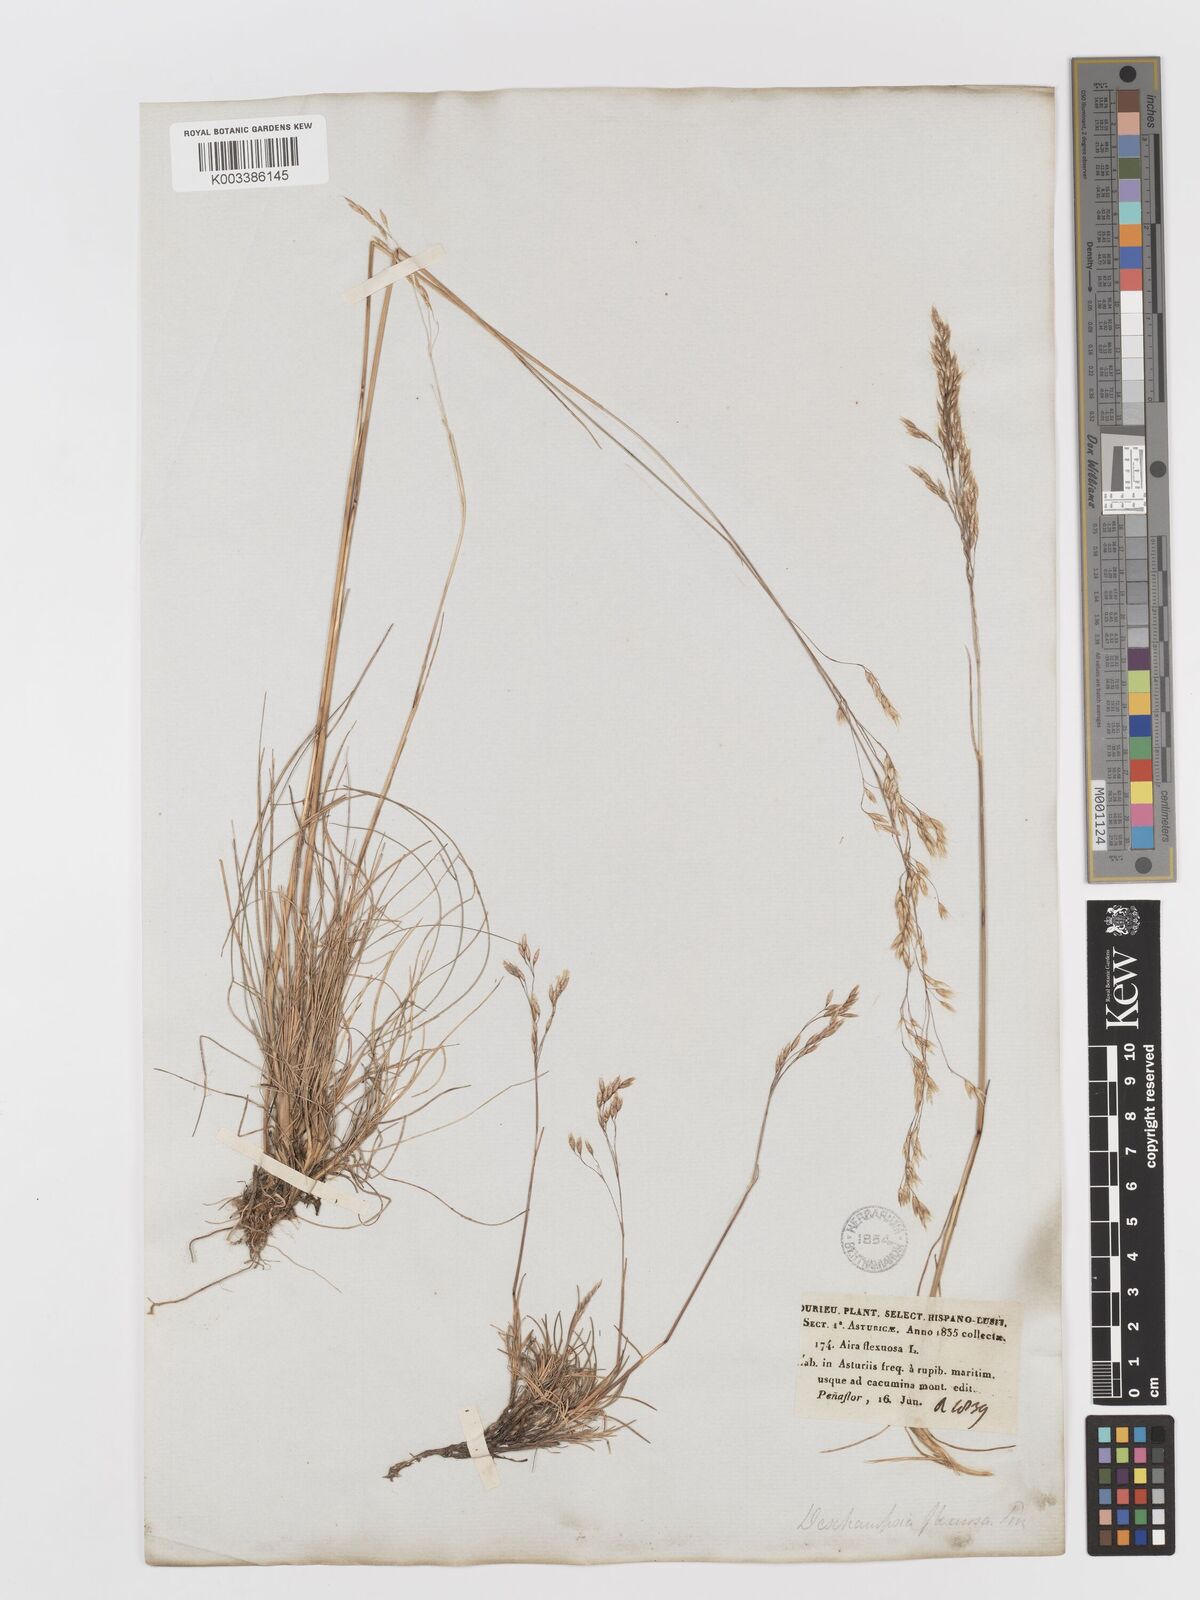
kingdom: Plantae
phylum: Tracheophyta
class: Liliopsida
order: Poales
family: Poaceae
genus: Avenella
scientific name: Avenella flexuosa
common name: Wavy hairgrass
